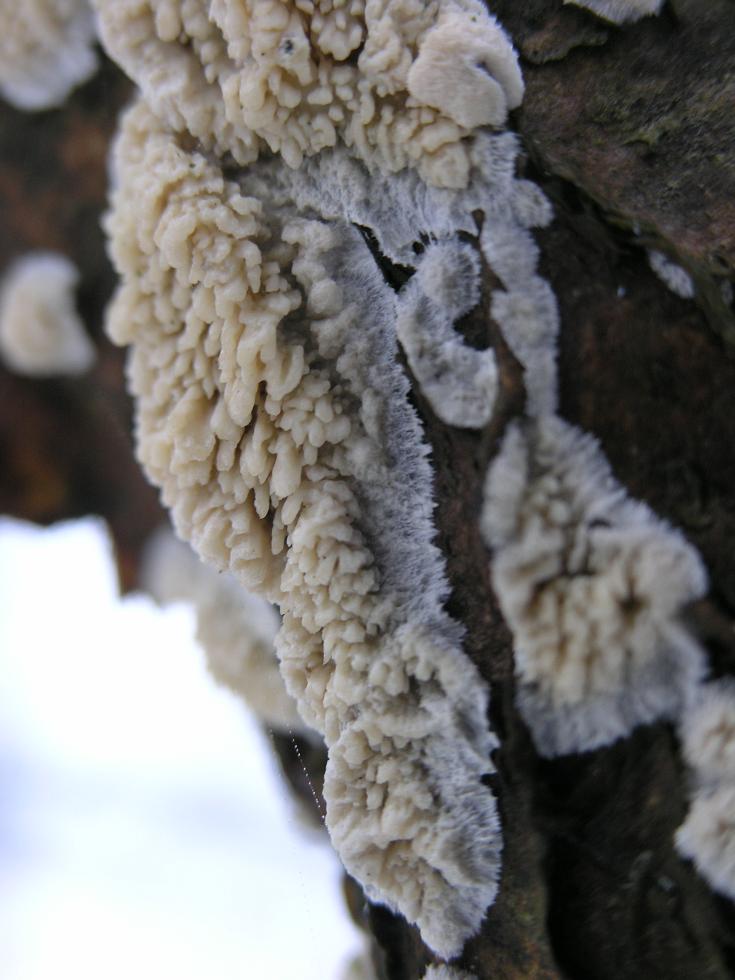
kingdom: Fungi
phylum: Basidiomycota
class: Agaricomycetes
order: Hymenochaetales
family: Schizoporaceae
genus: Xylodon
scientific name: Xylodon radula
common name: grovtandet kalkskind
